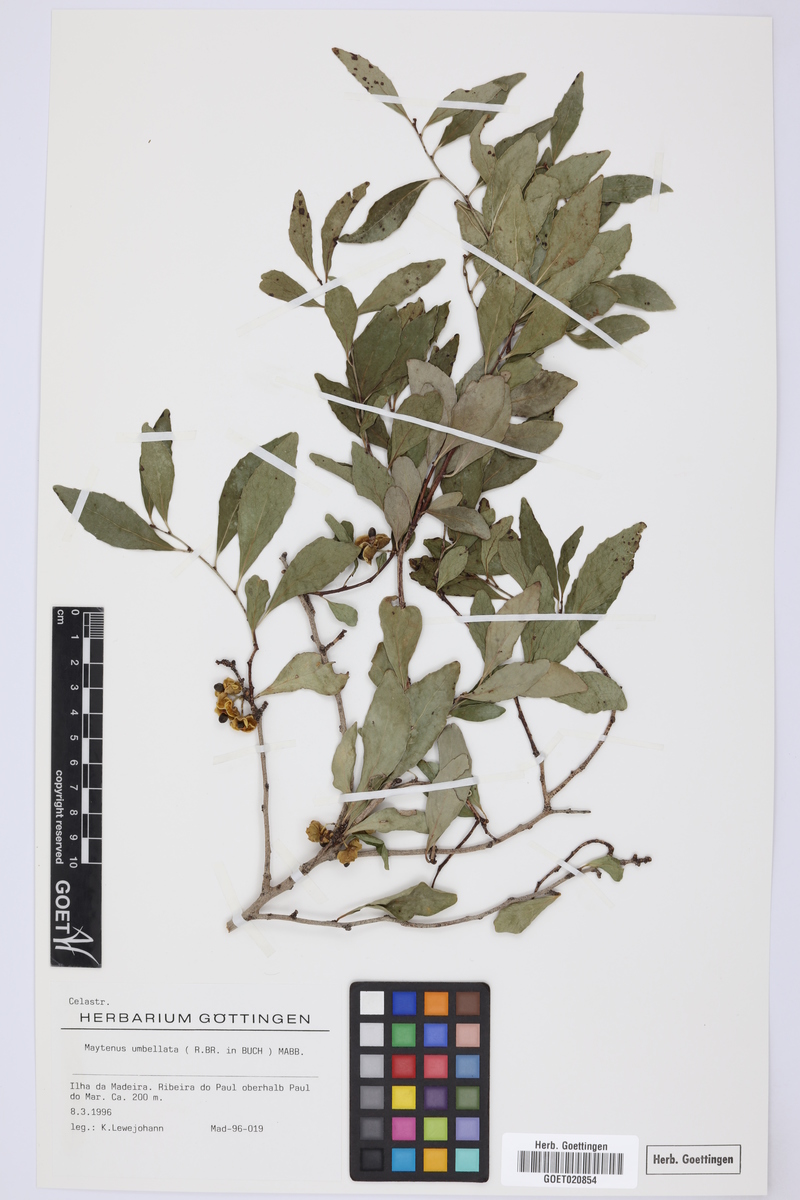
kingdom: Plantae
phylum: Tracheophyta
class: Magnoliopsida
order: Celastrales
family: Celastraceae
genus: Gymnosporia
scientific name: Gymnosporia dryandri
